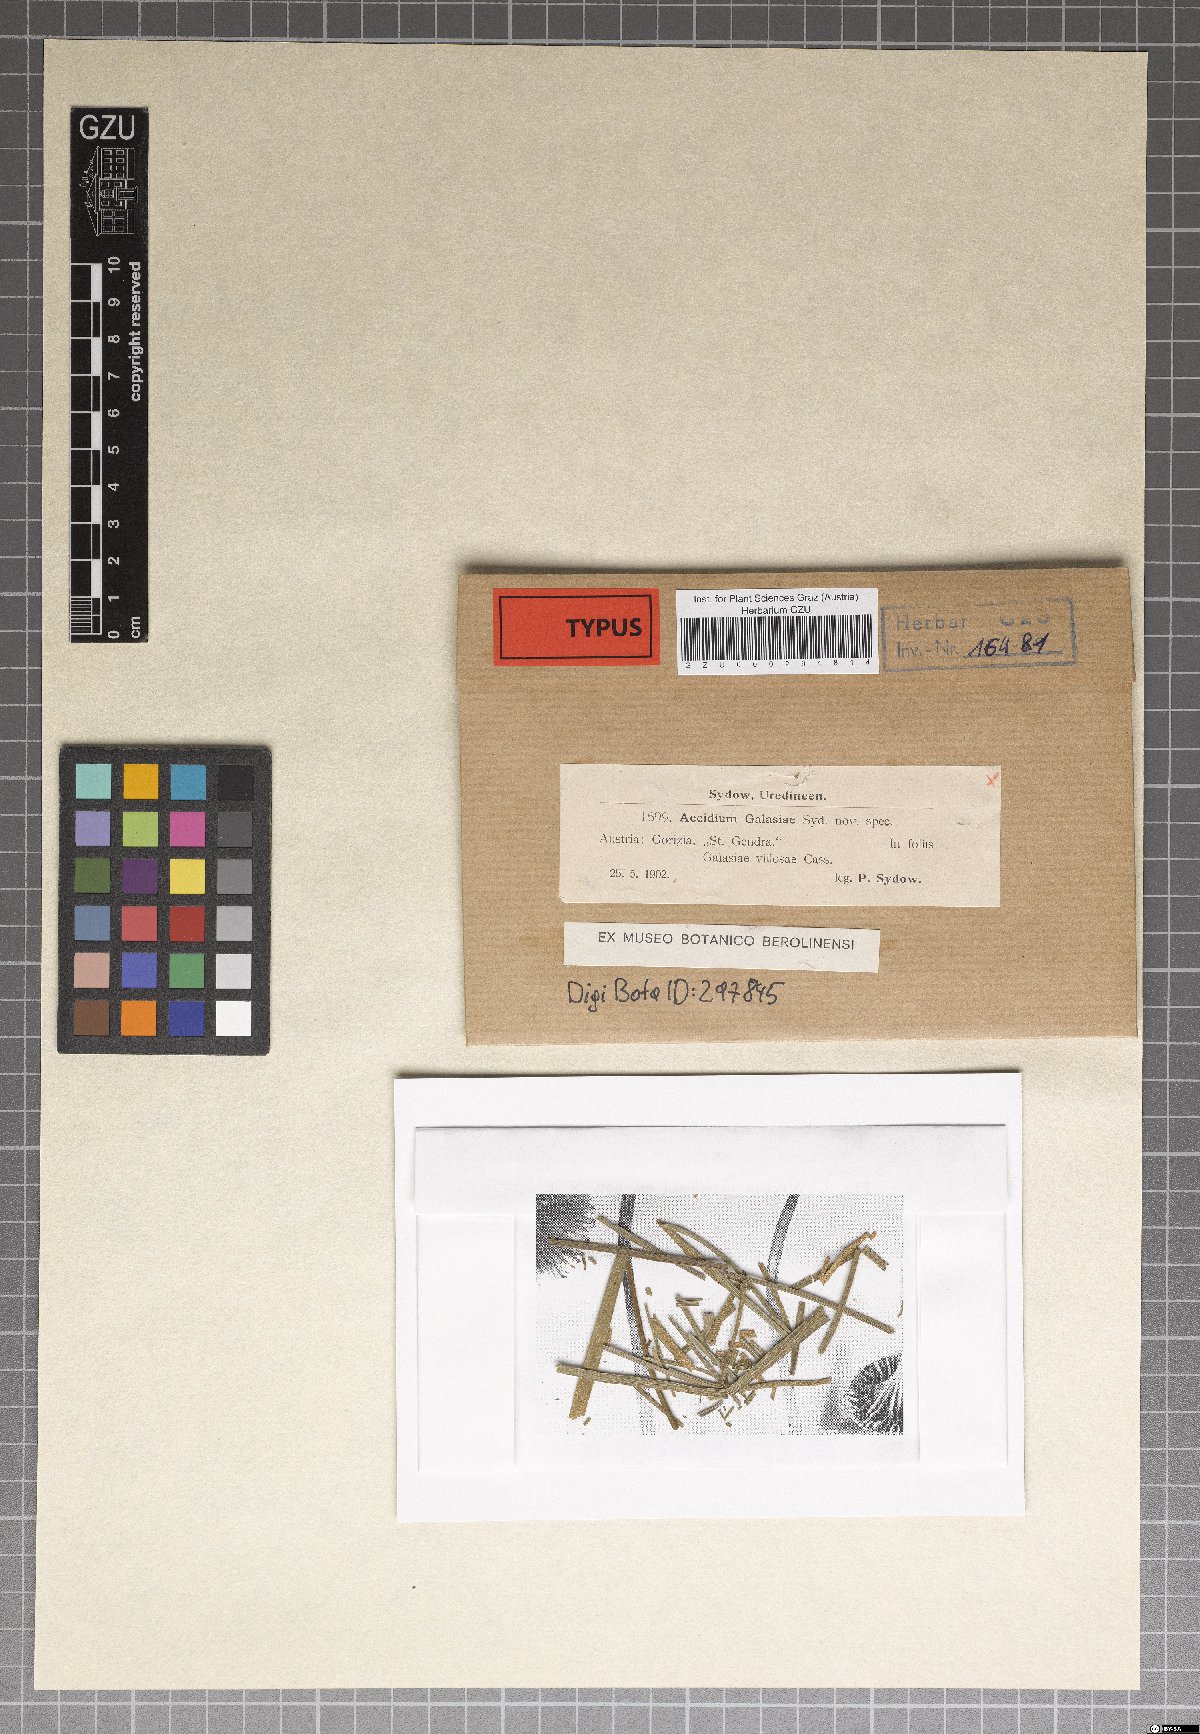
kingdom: Fungi
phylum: Basidiomycota
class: Pucciniomycetes
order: Pucciniales
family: Pucciniaceae
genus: Aecidium
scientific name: Aecidium galasiae
